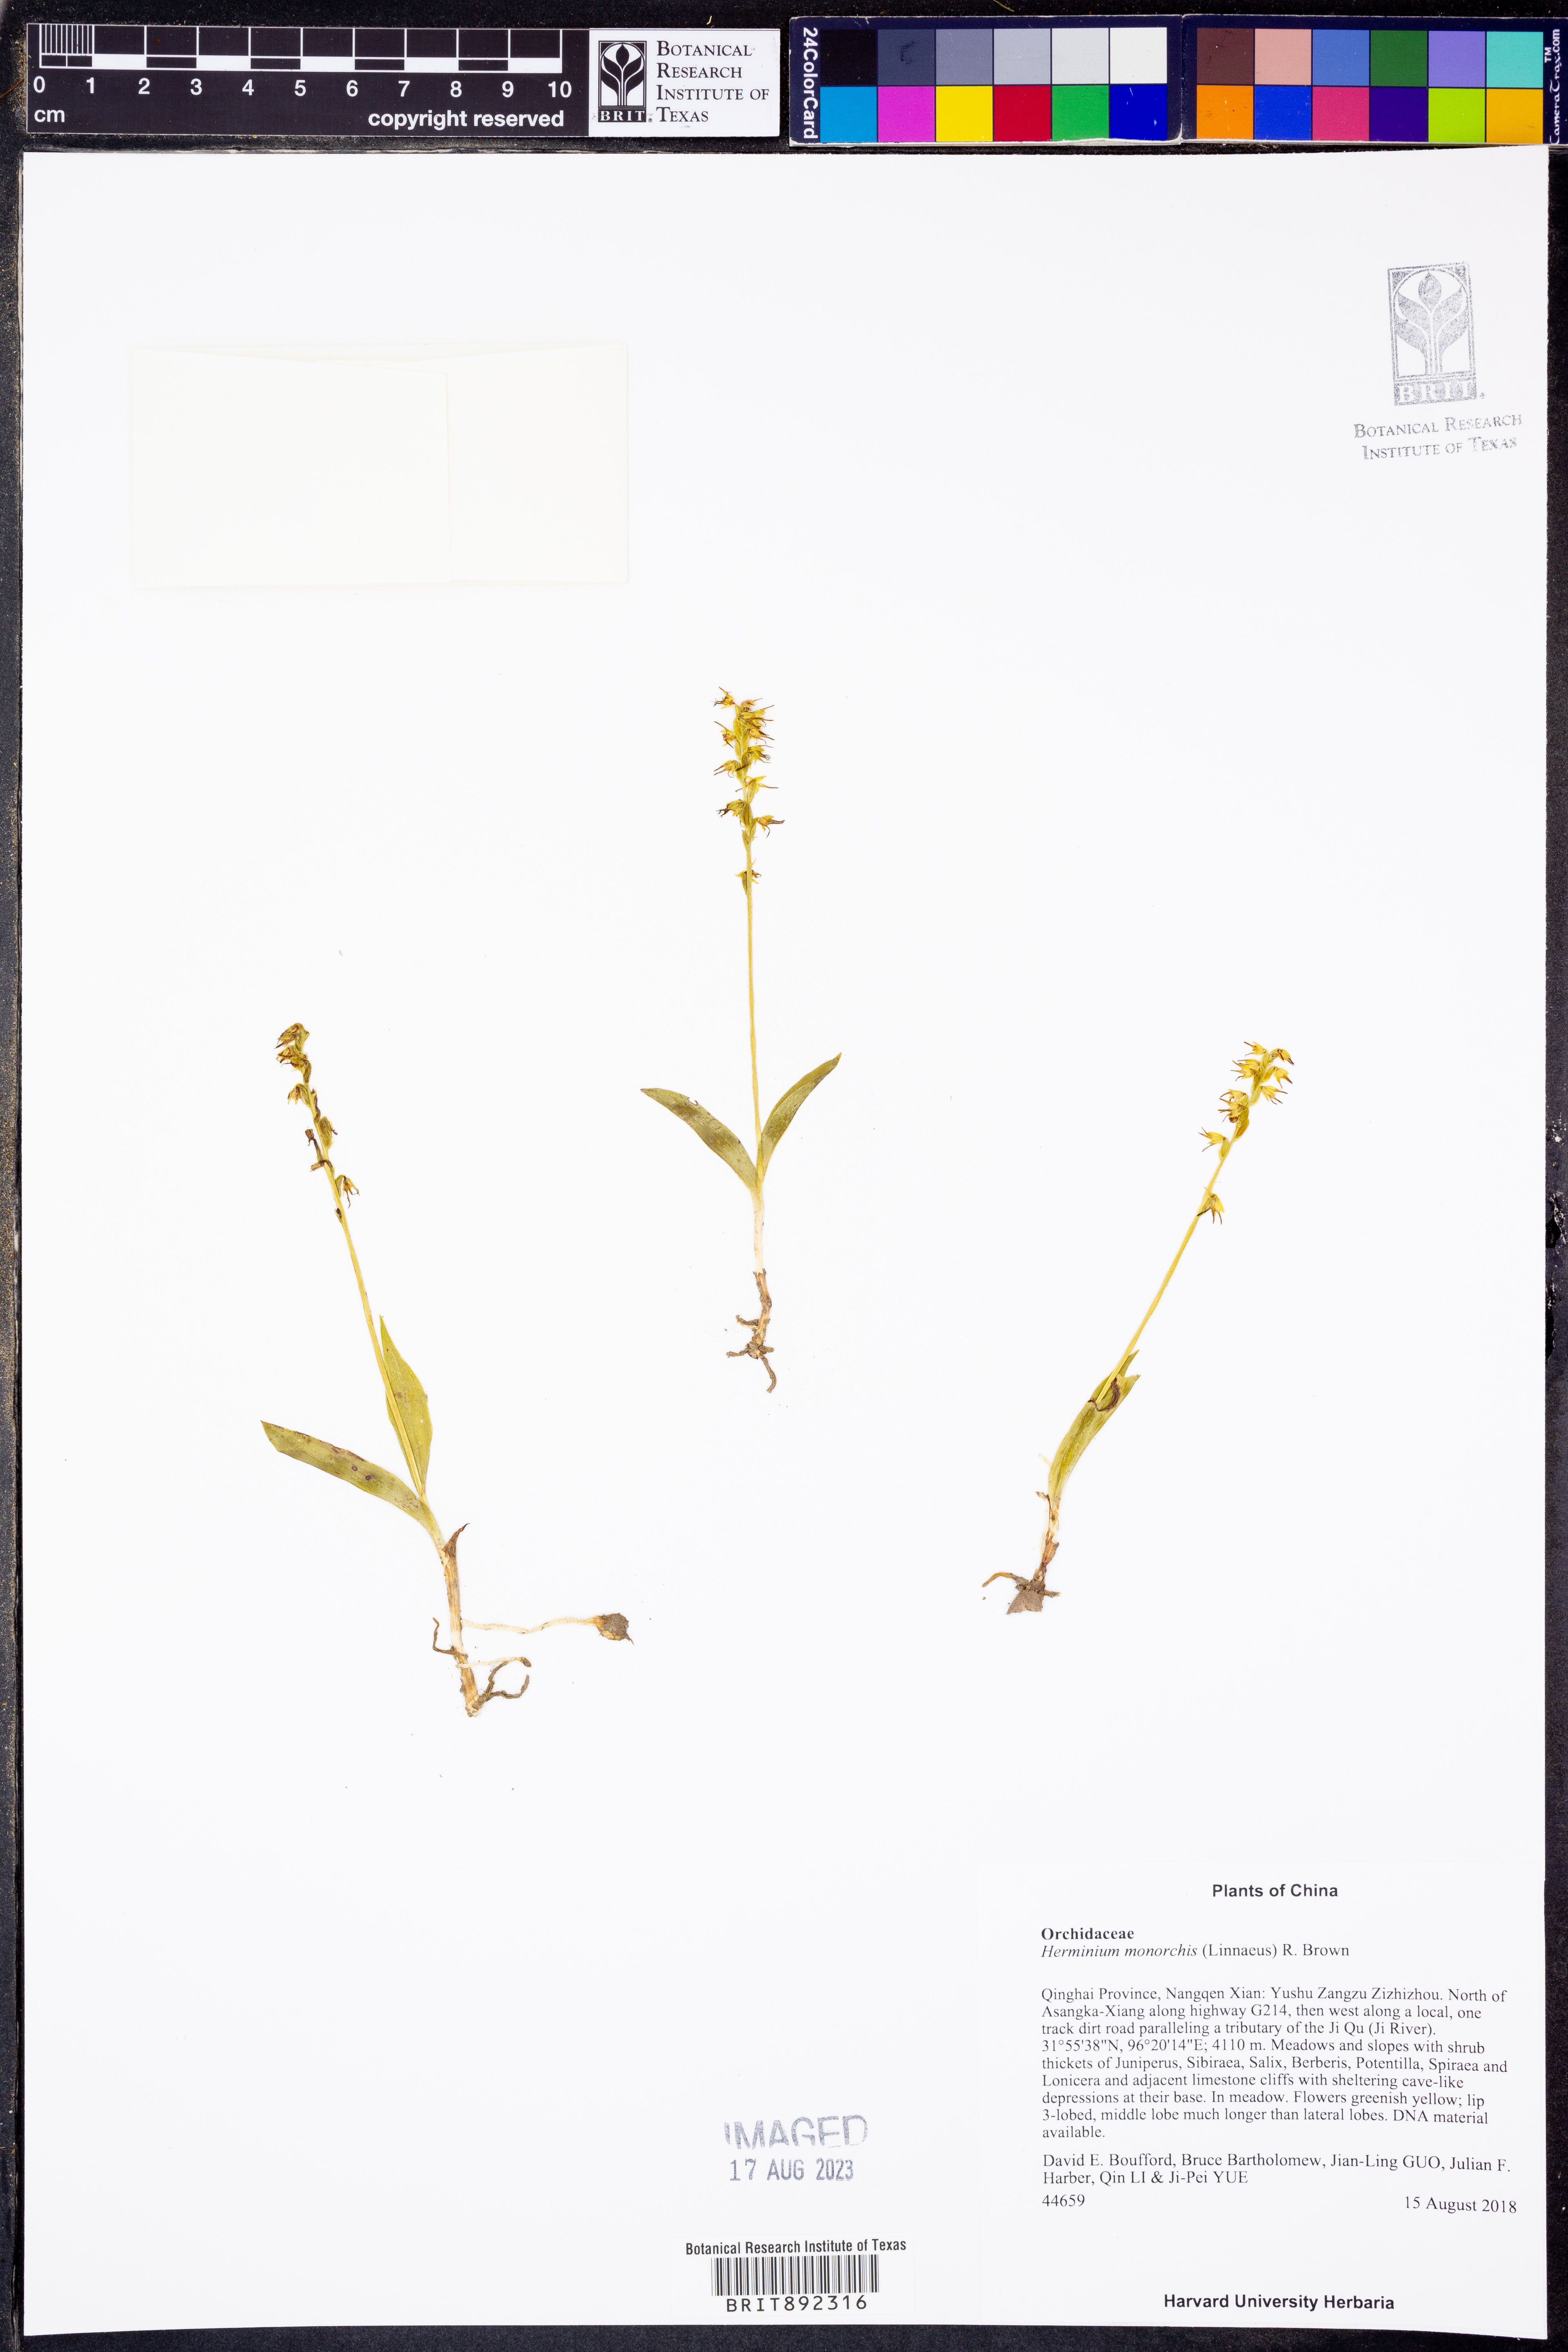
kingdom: Plantae
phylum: Tracheophyta
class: Liliopsida
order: Asparagales
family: Orchidaceae
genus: Herminium
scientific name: Herminium monorchis
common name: Musk orchid
